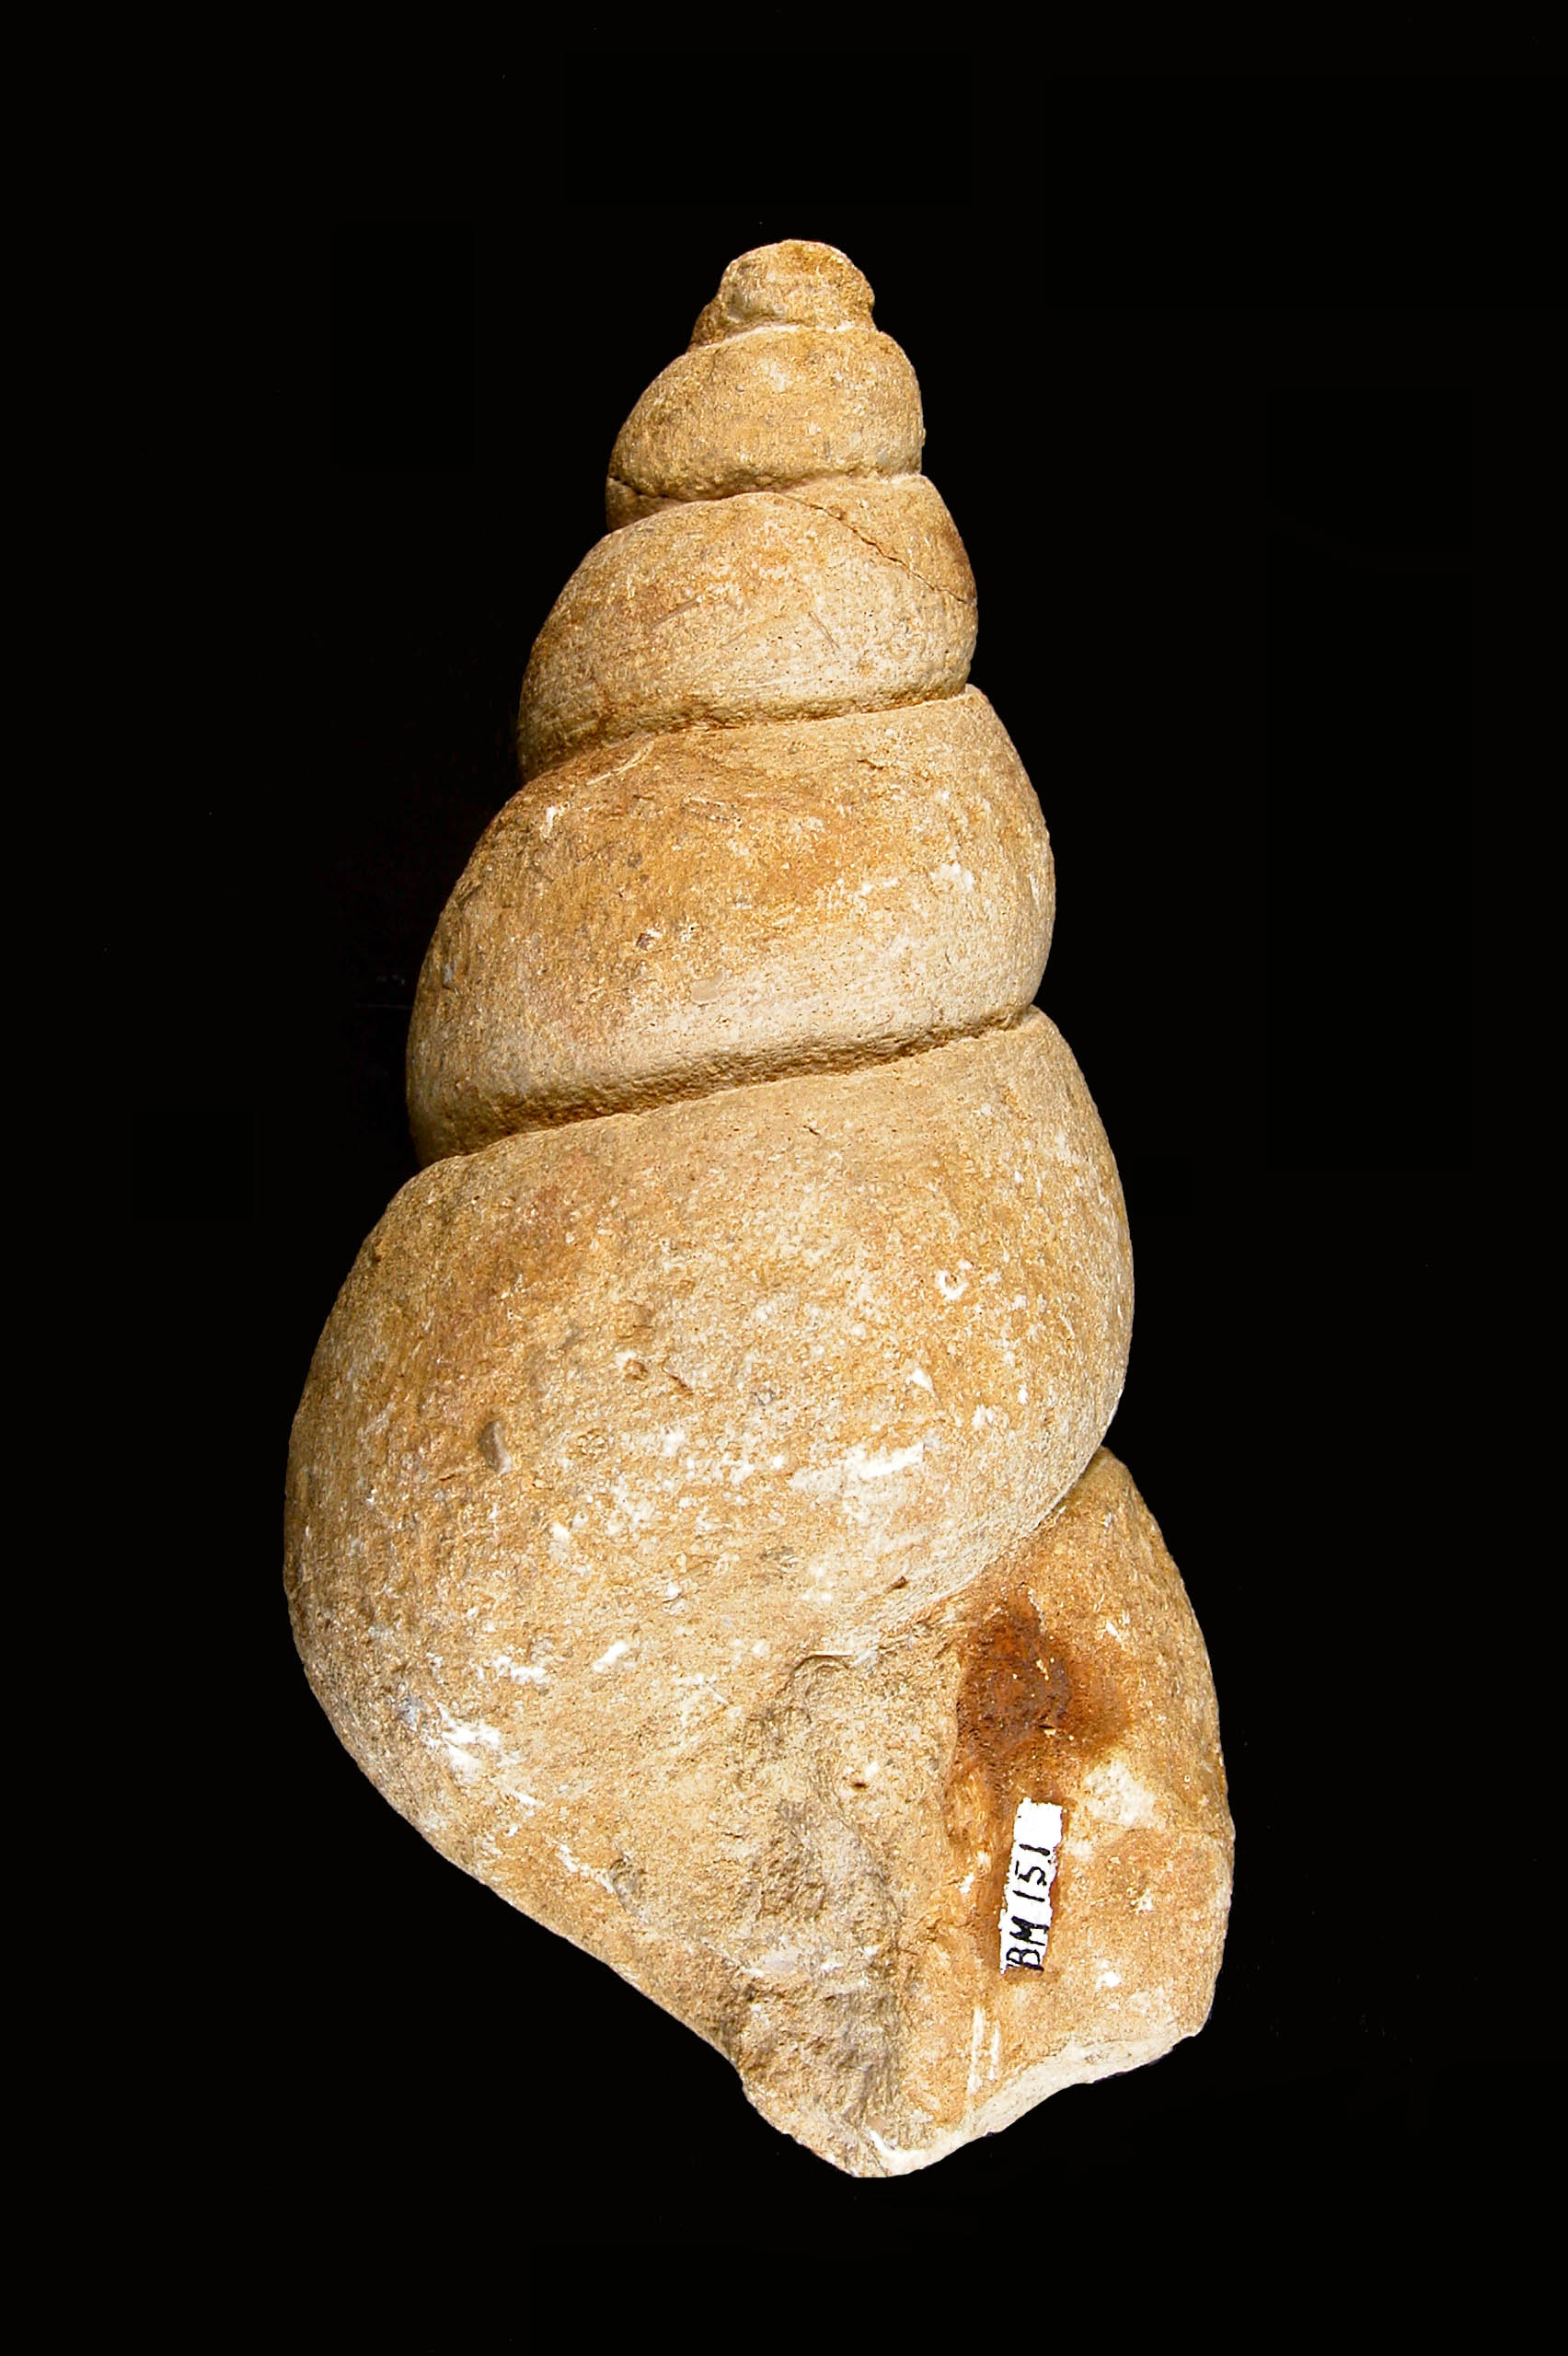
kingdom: Animalia
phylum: Mollusca
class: Gastropoda
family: Pseudomelaniidae
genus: Bourgetia
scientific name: Bourgetia saemanni
